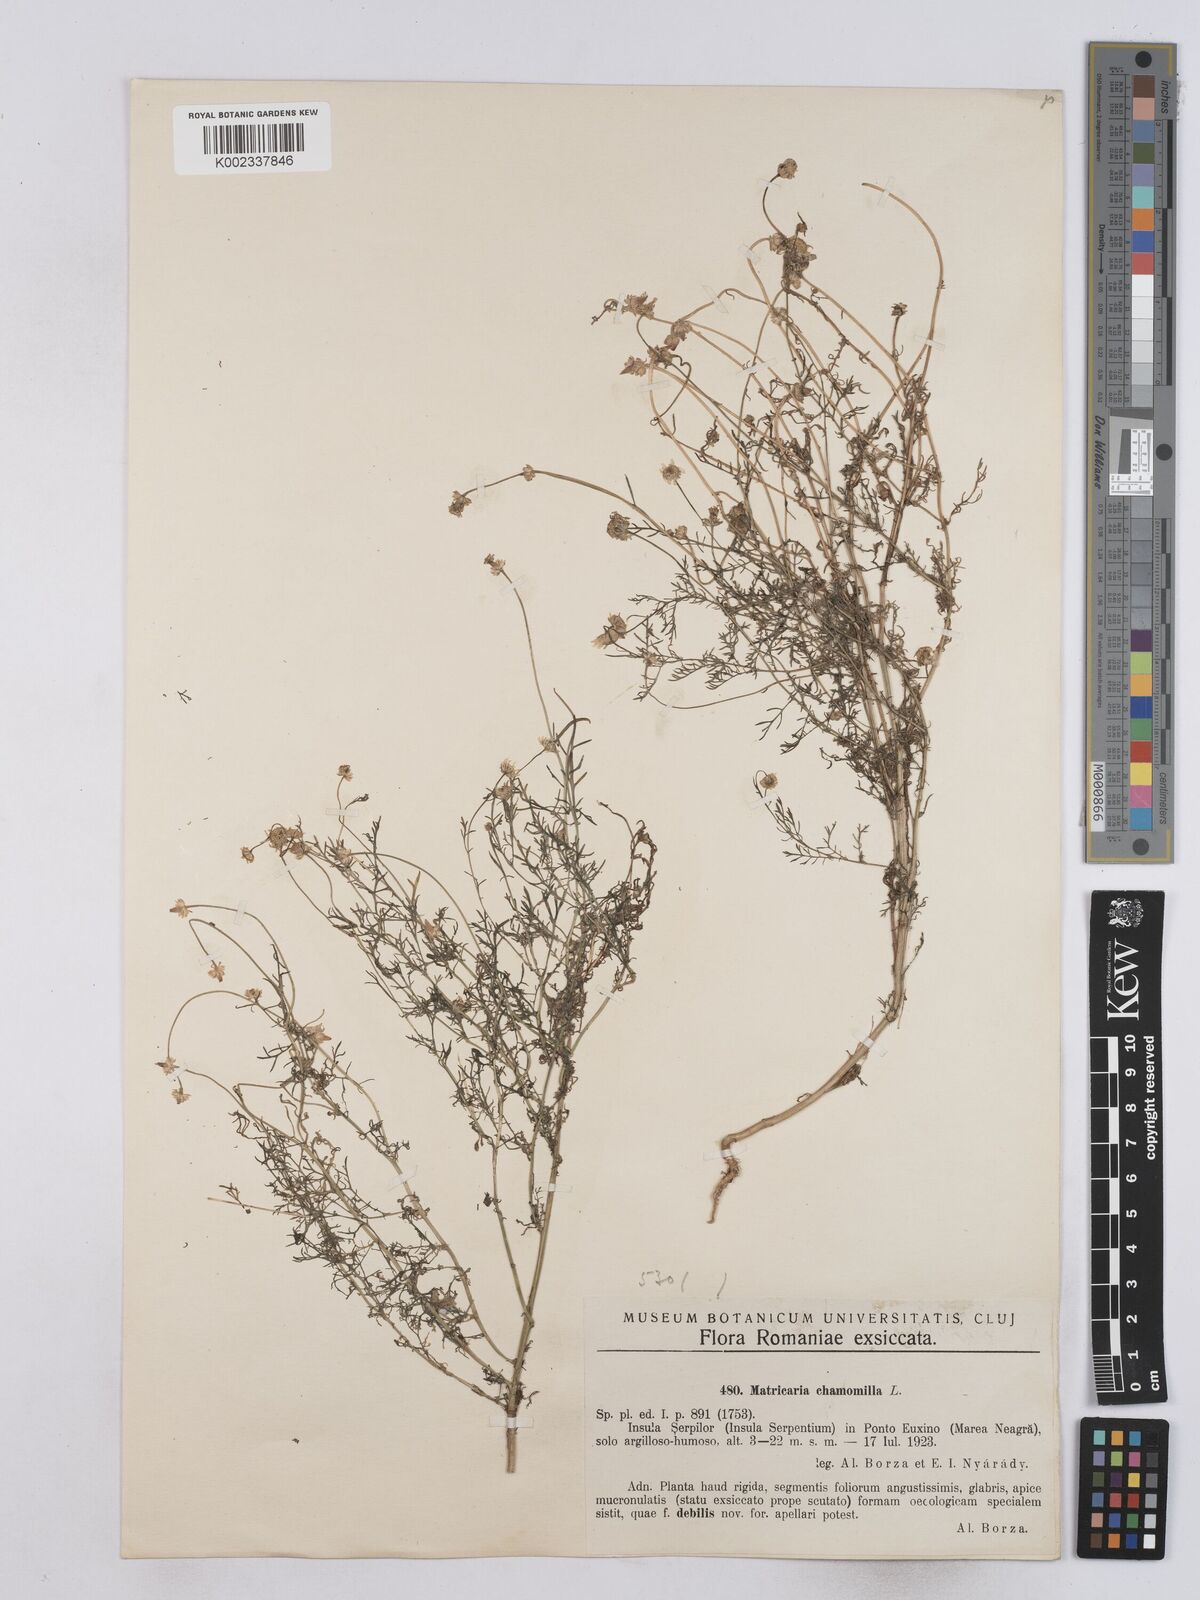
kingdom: Plantae
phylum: Tracheophyta
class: Magnoliopsida
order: Asterales
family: Asteraceae
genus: Matricaria
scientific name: Matricaria chamomilla
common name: Scented mayweed
